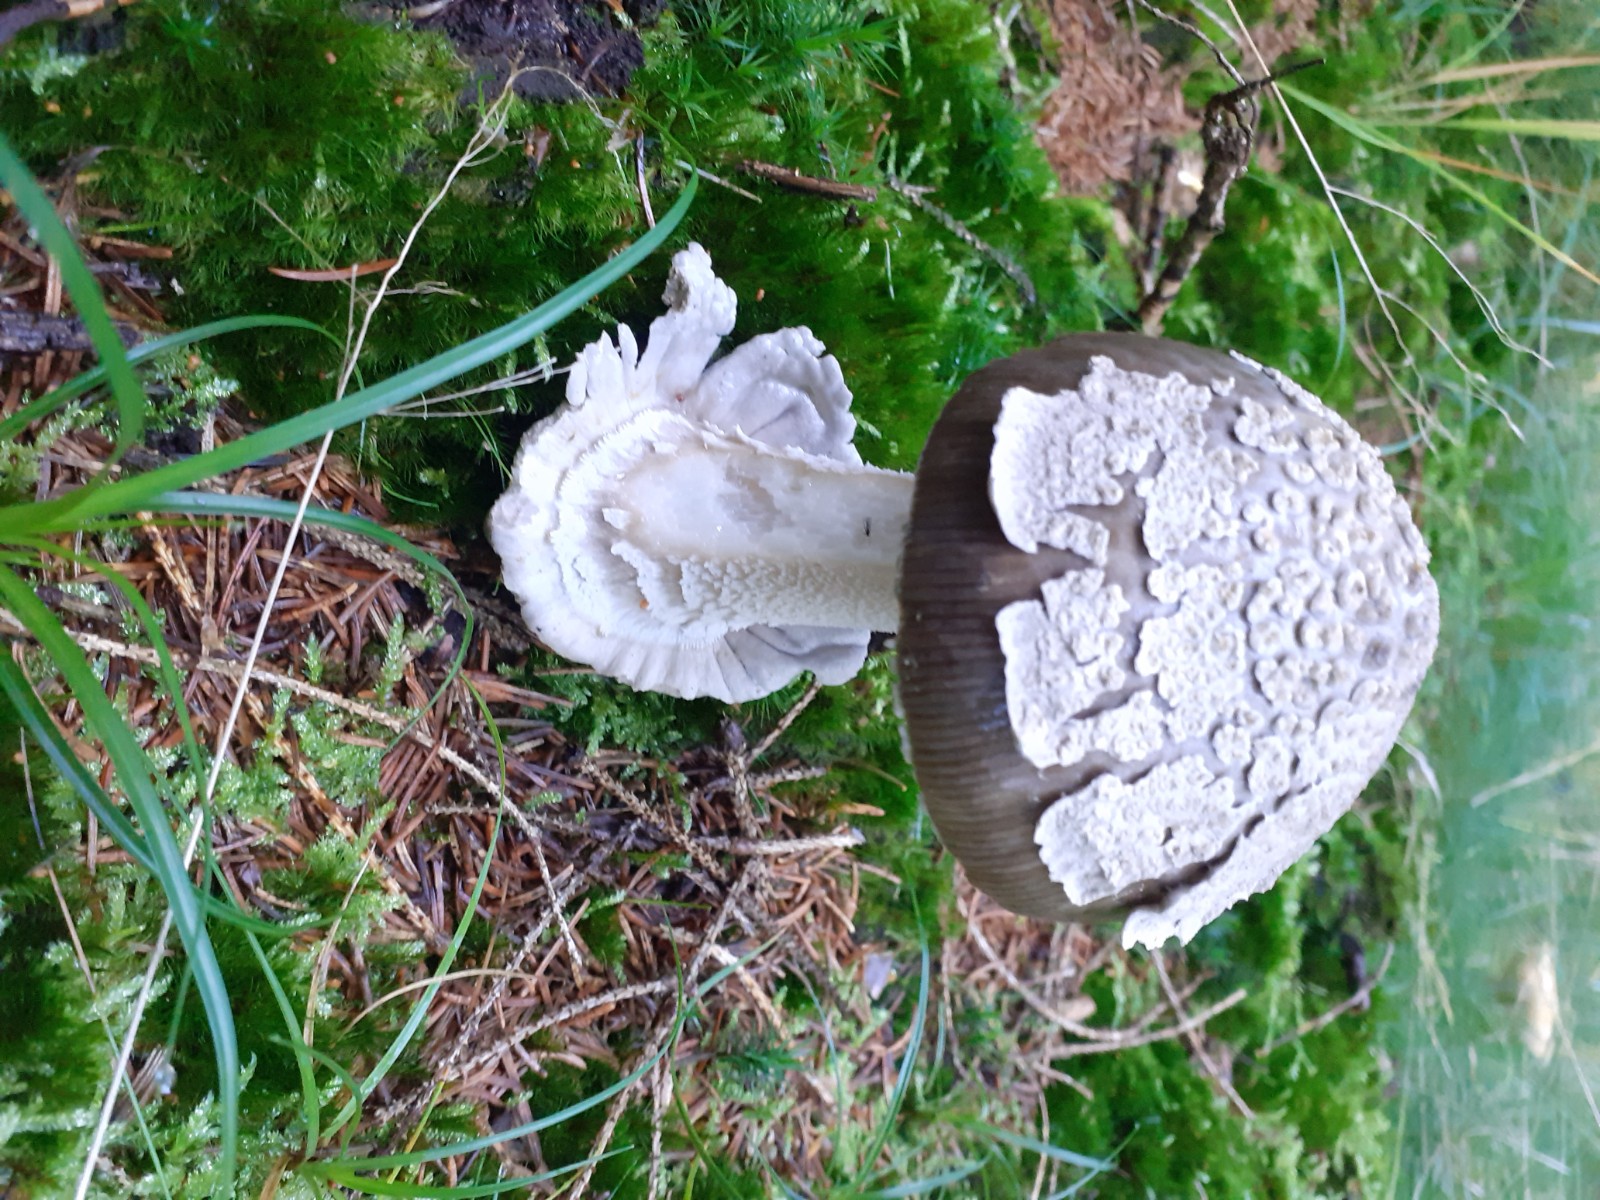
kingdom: Fungi
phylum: Basidiomycota
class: Agaricomycetes
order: Agaricales
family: Amanitaceae
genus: Amanita
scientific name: Amanita
